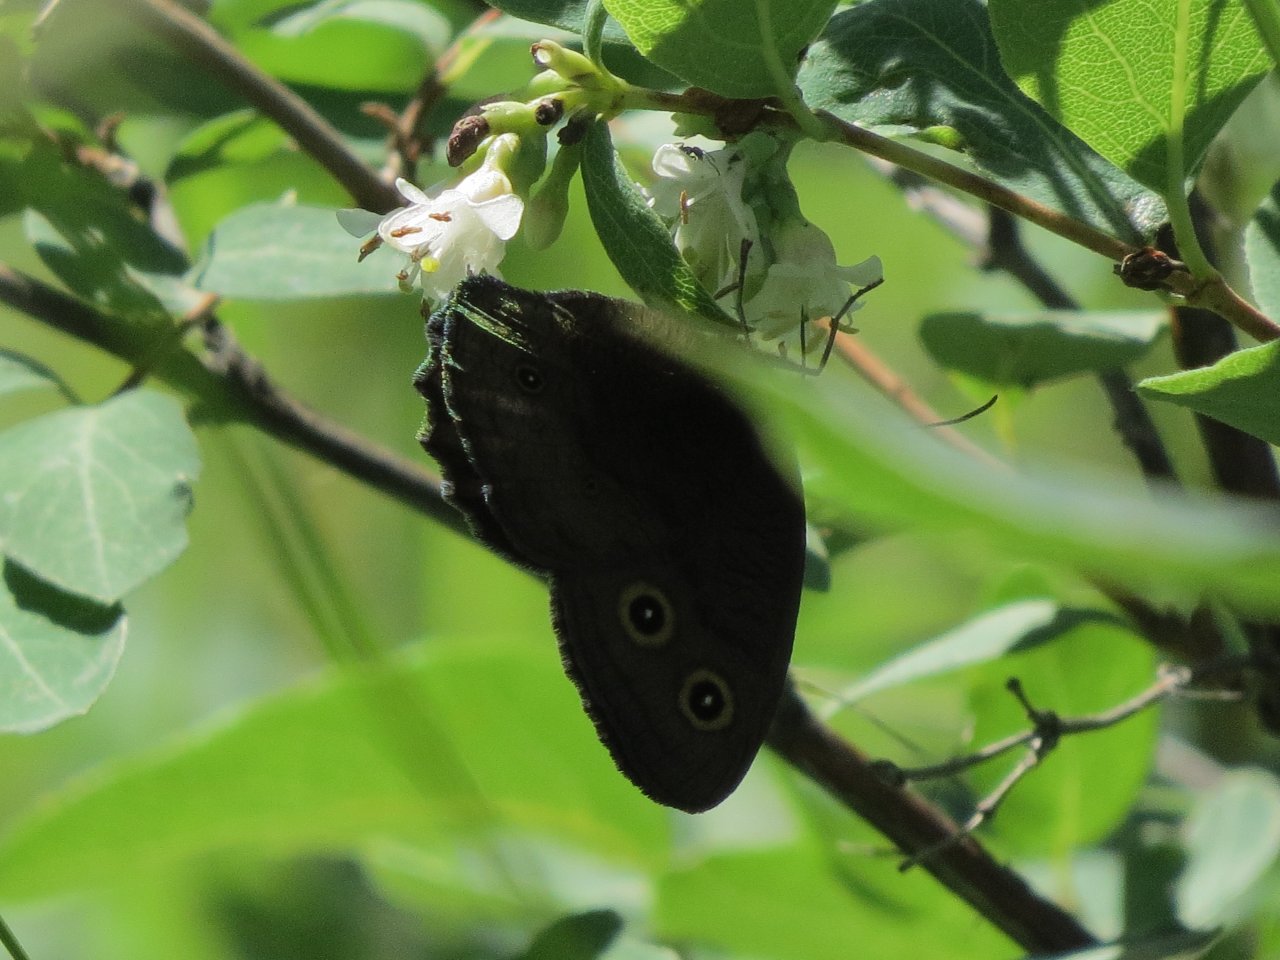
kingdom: Animalia
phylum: Arthropoda
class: Insecta
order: Lepidoptera
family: Nymphalidae
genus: Cercyonis
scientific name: Cercyonis pegala
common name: Common Wood-Nymph
